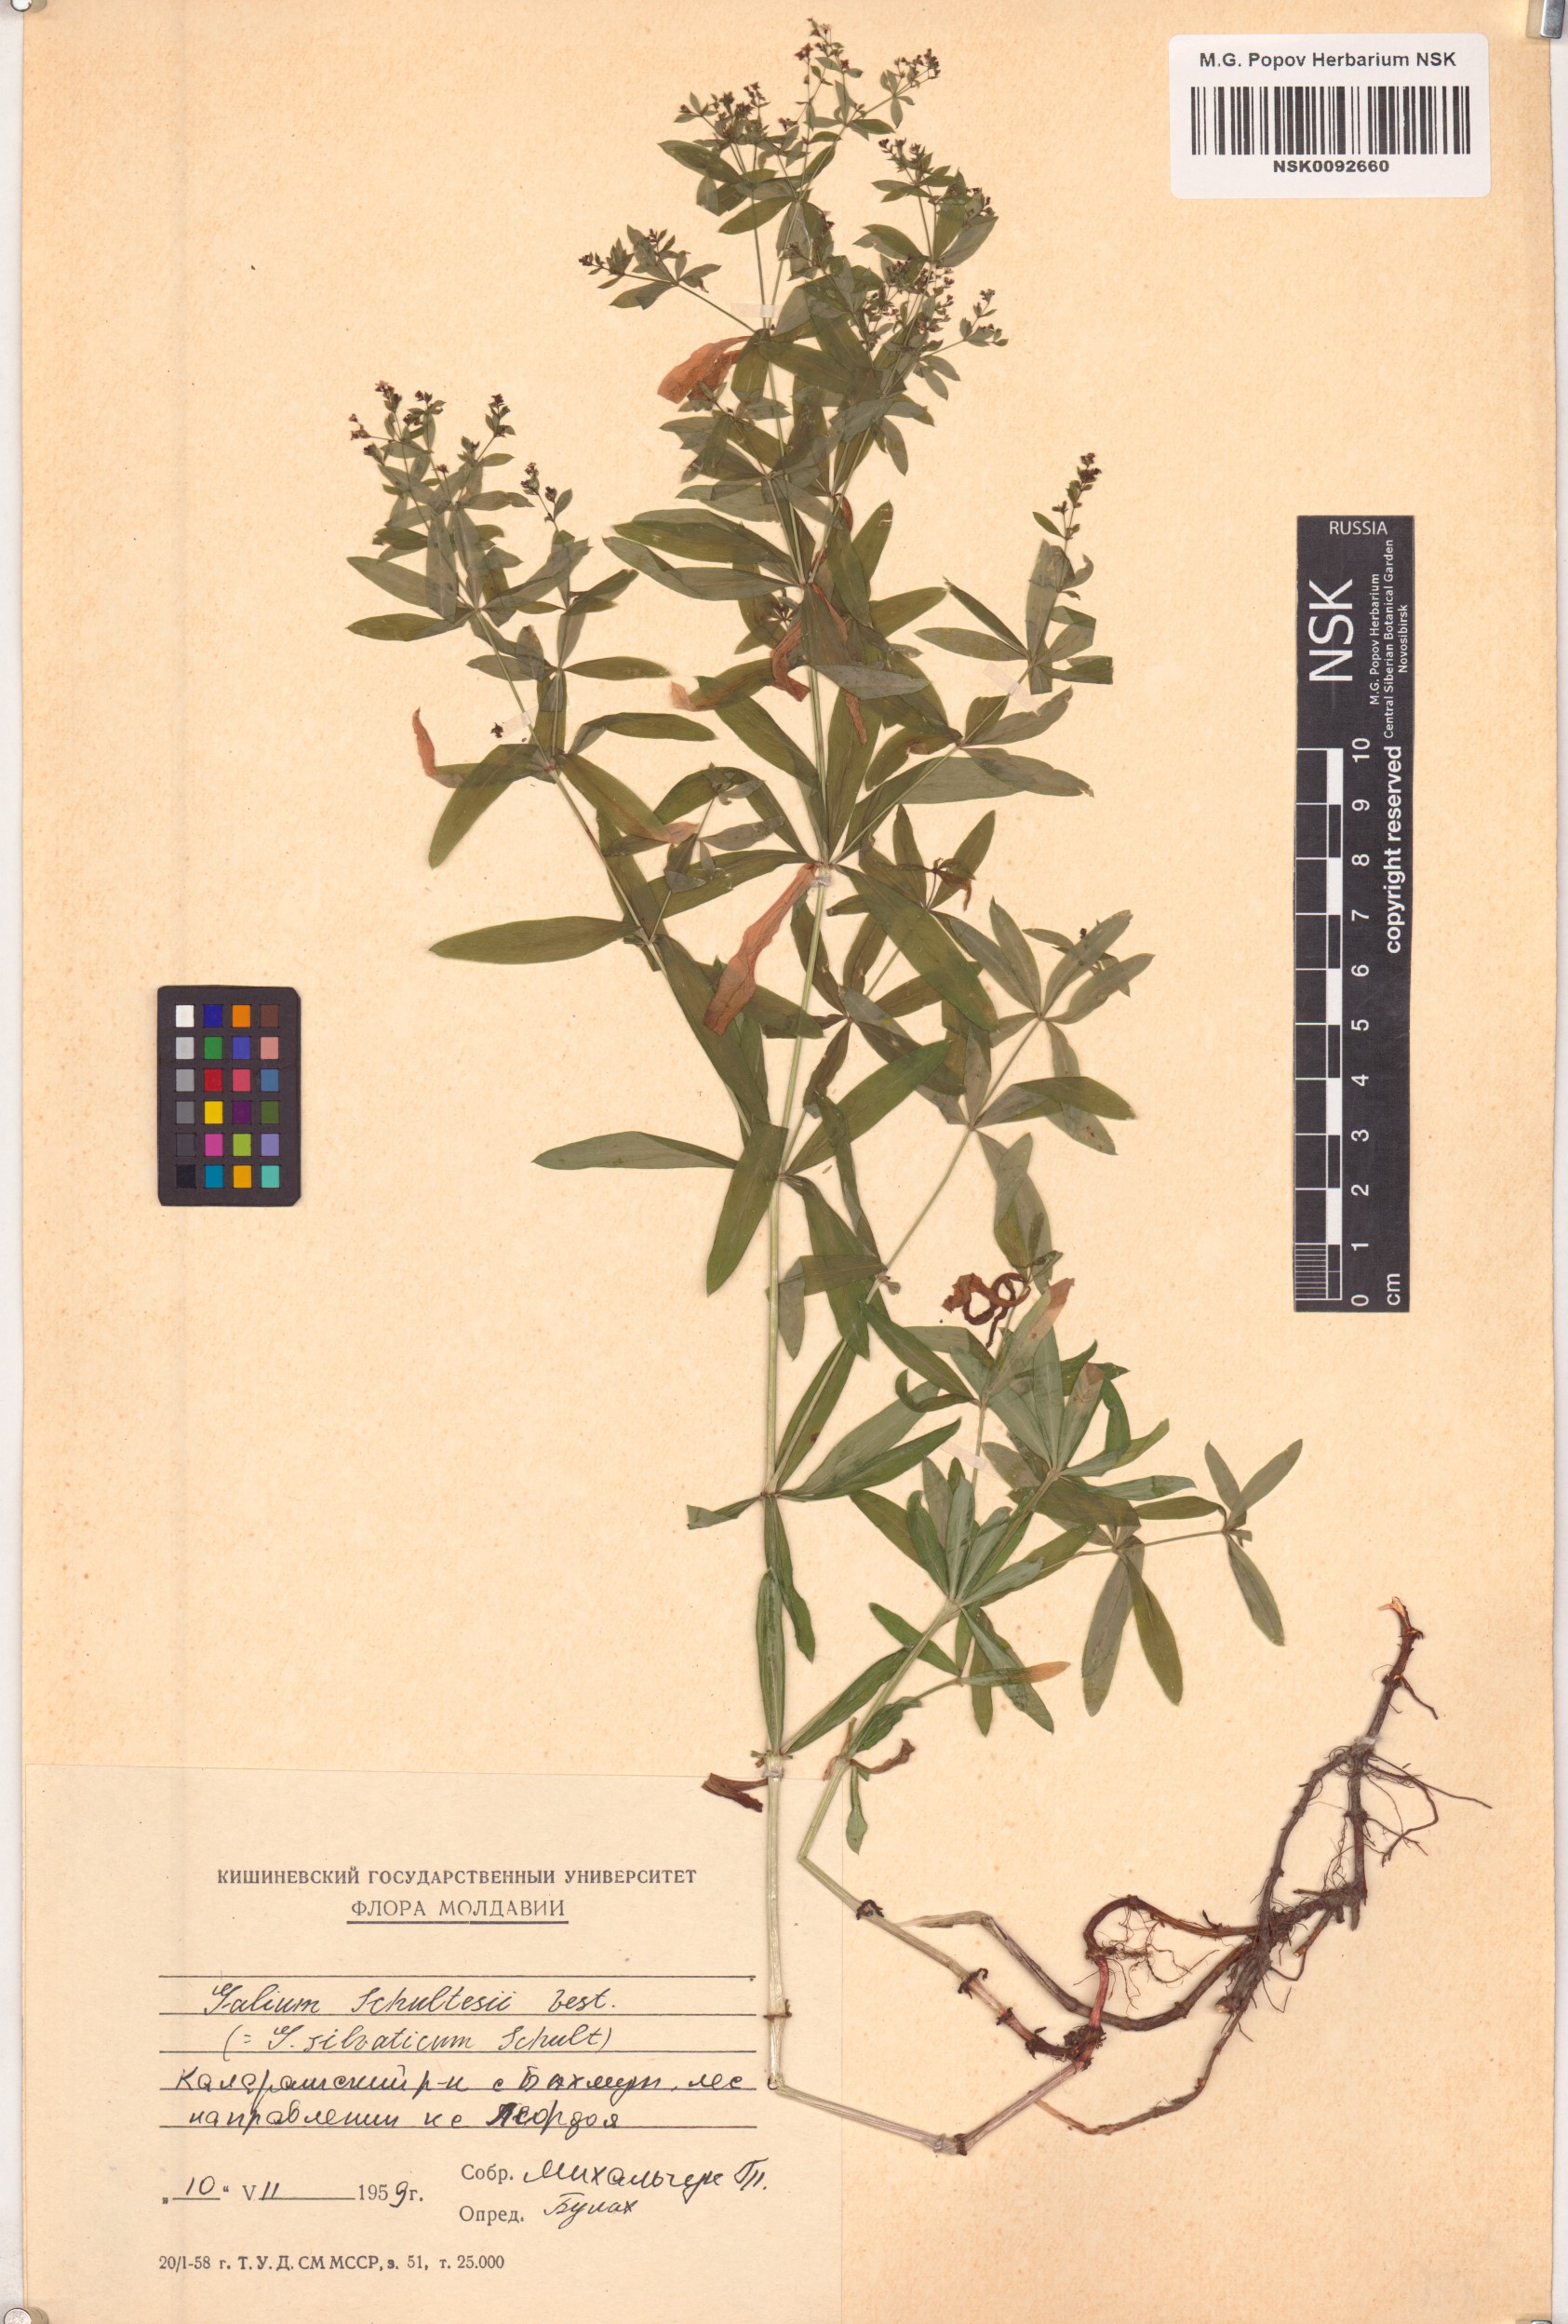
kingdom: Plantae
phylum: Tracheophyta
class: Magnoliopsida
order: Gentianales
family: Rubiaceae
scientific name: Rubiaceae
